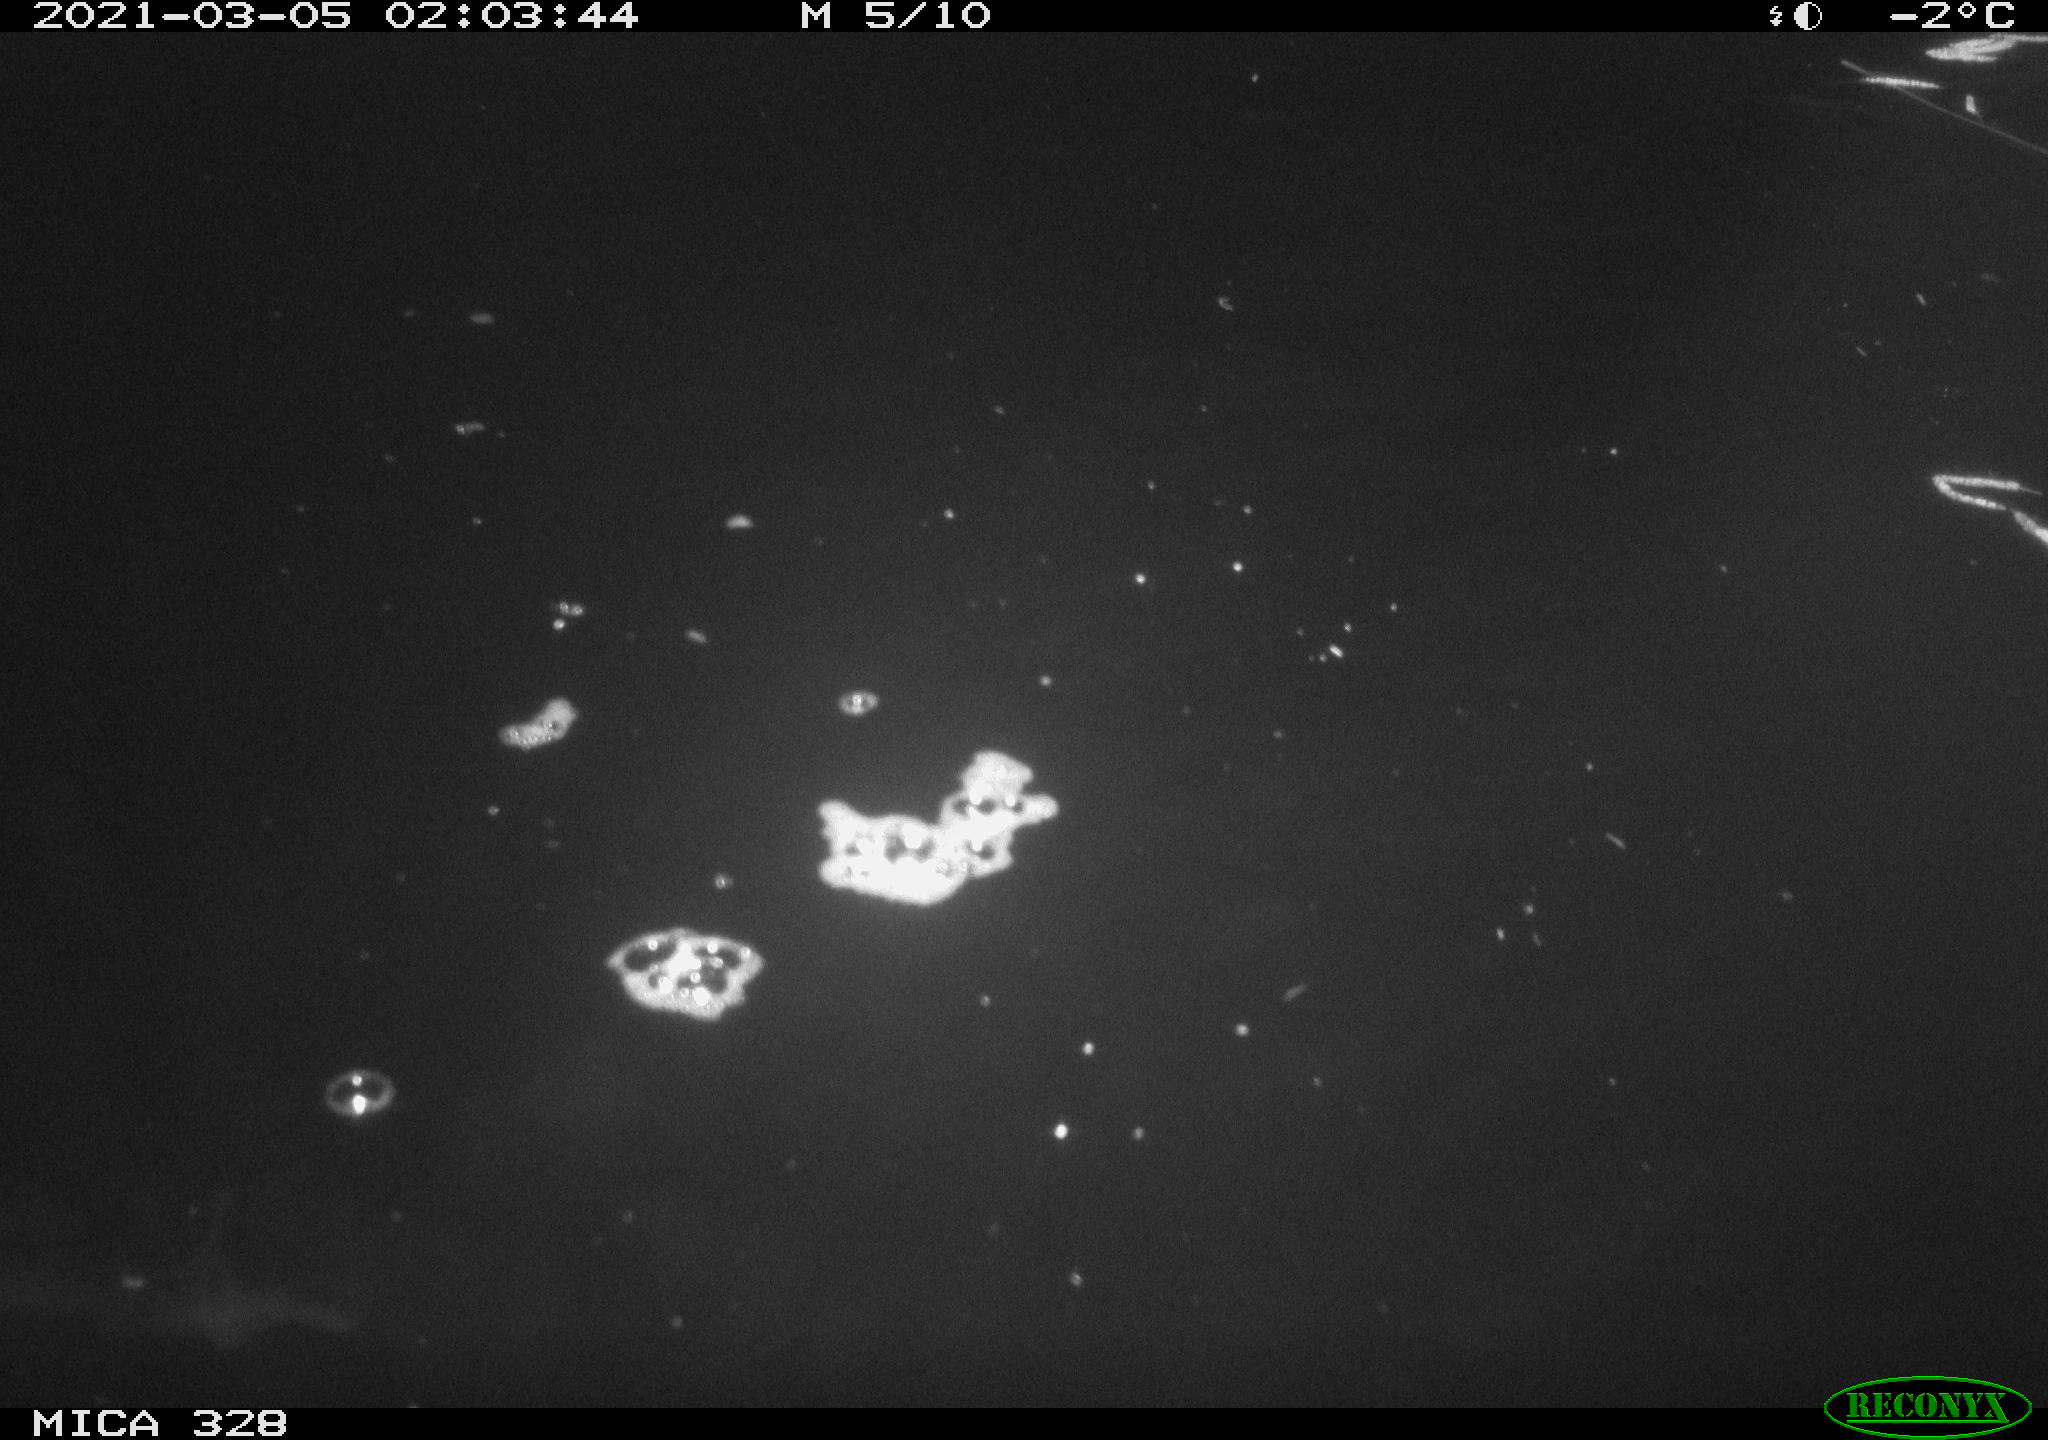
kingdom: Animalia
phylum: Chordata
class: Mammalia
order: Rodentia
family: Cricetidae
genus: Ondatra
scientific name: Ondatra zibethicus
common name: Muskrat
